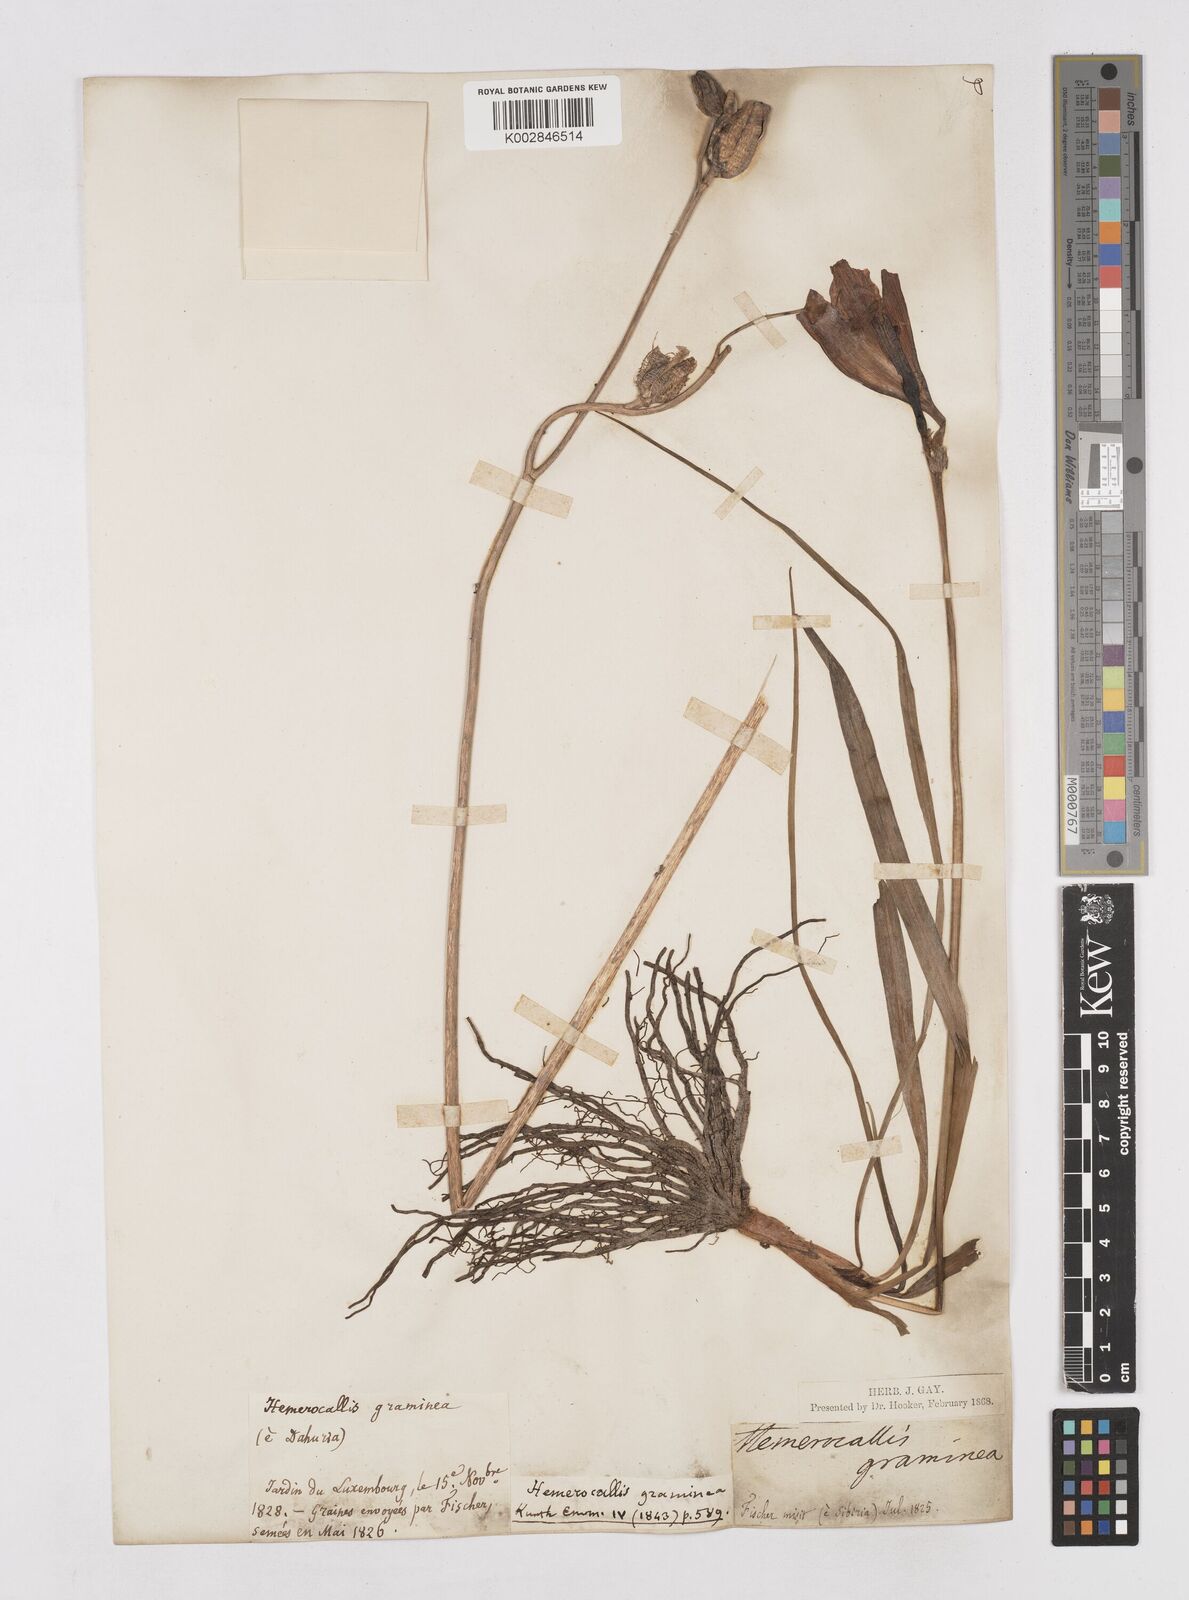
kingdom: Plantae
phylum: Tracheophyta
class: Liliopsida
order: Asparagales
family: Asphodelaceae
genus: Hemerocallis
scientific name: Hemerocallis minor
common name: Small daylily
